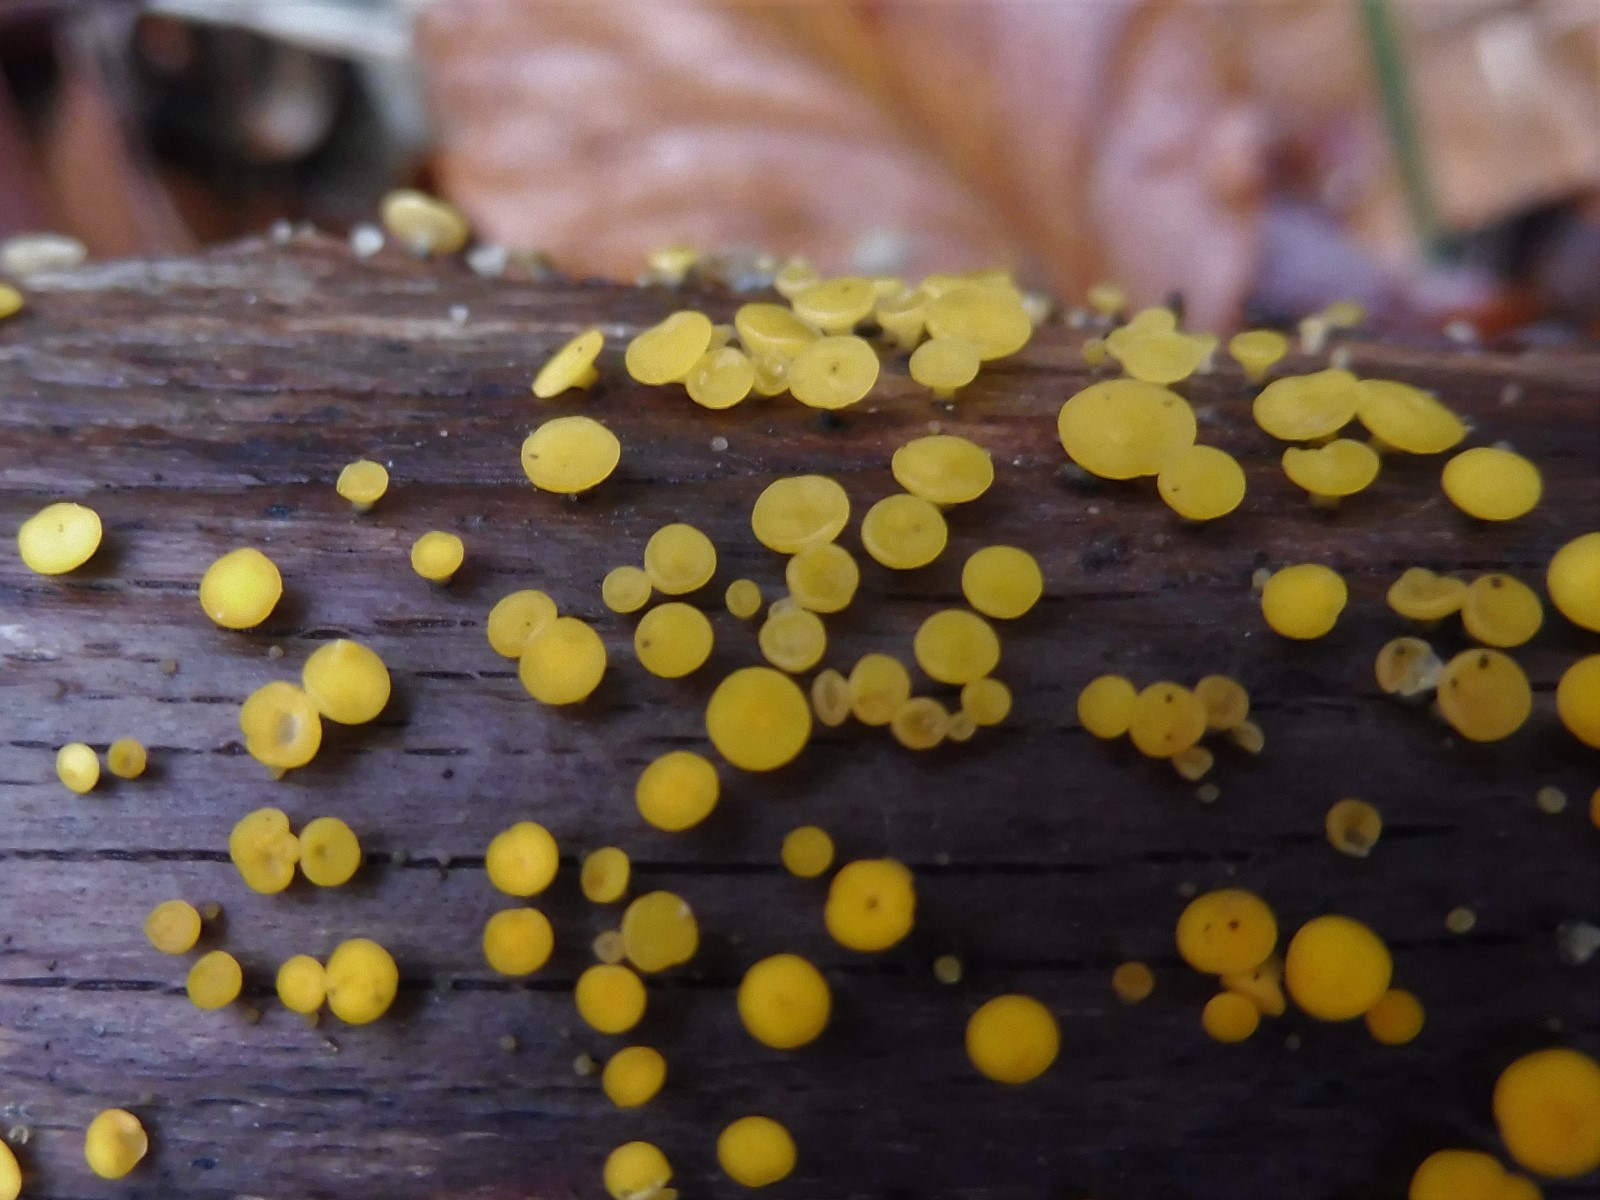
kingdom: Fungi
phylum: Ascomycota
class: Leotiomycetes
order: Helotiales
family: Pezizellaceae
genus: Calycina
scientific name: Calycina citrina
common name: almindelig gulskive
